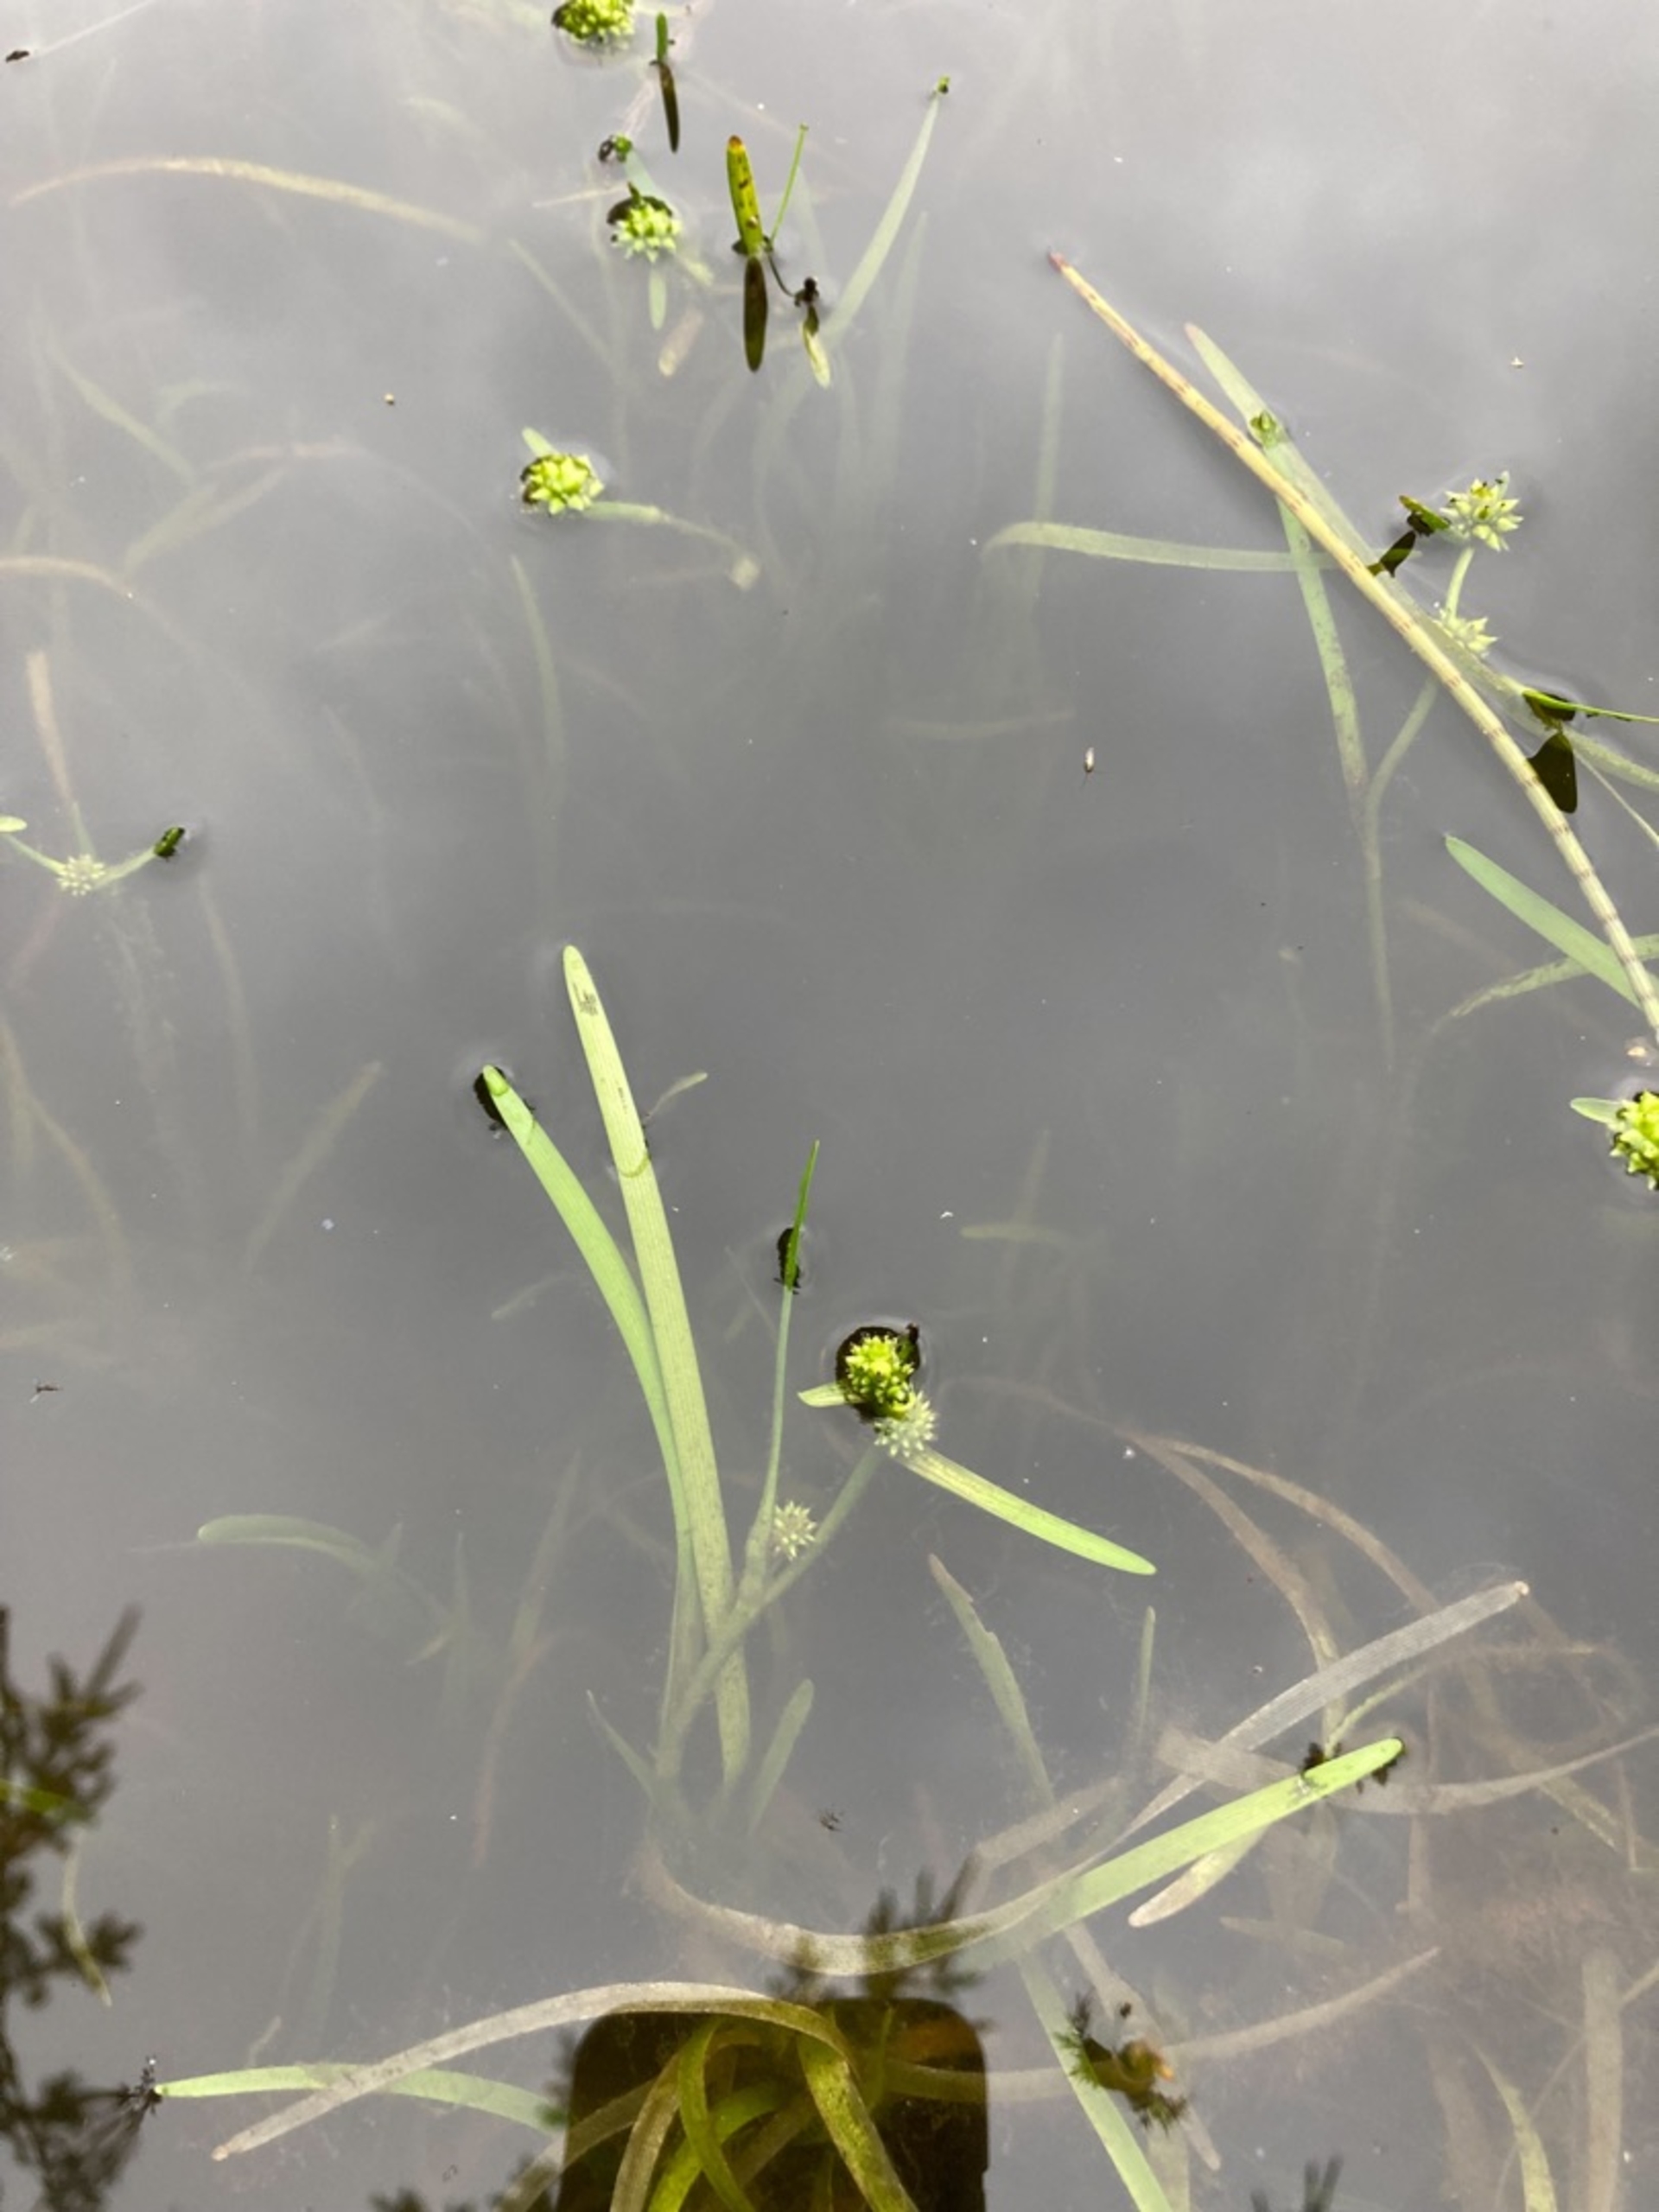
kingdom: Plantae
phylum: Tracheophyta
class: Liliopsida
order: Poales
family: Typhaceae
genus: Sparganium
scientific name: Sparganium natans
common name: Spæd pindsvineknop
